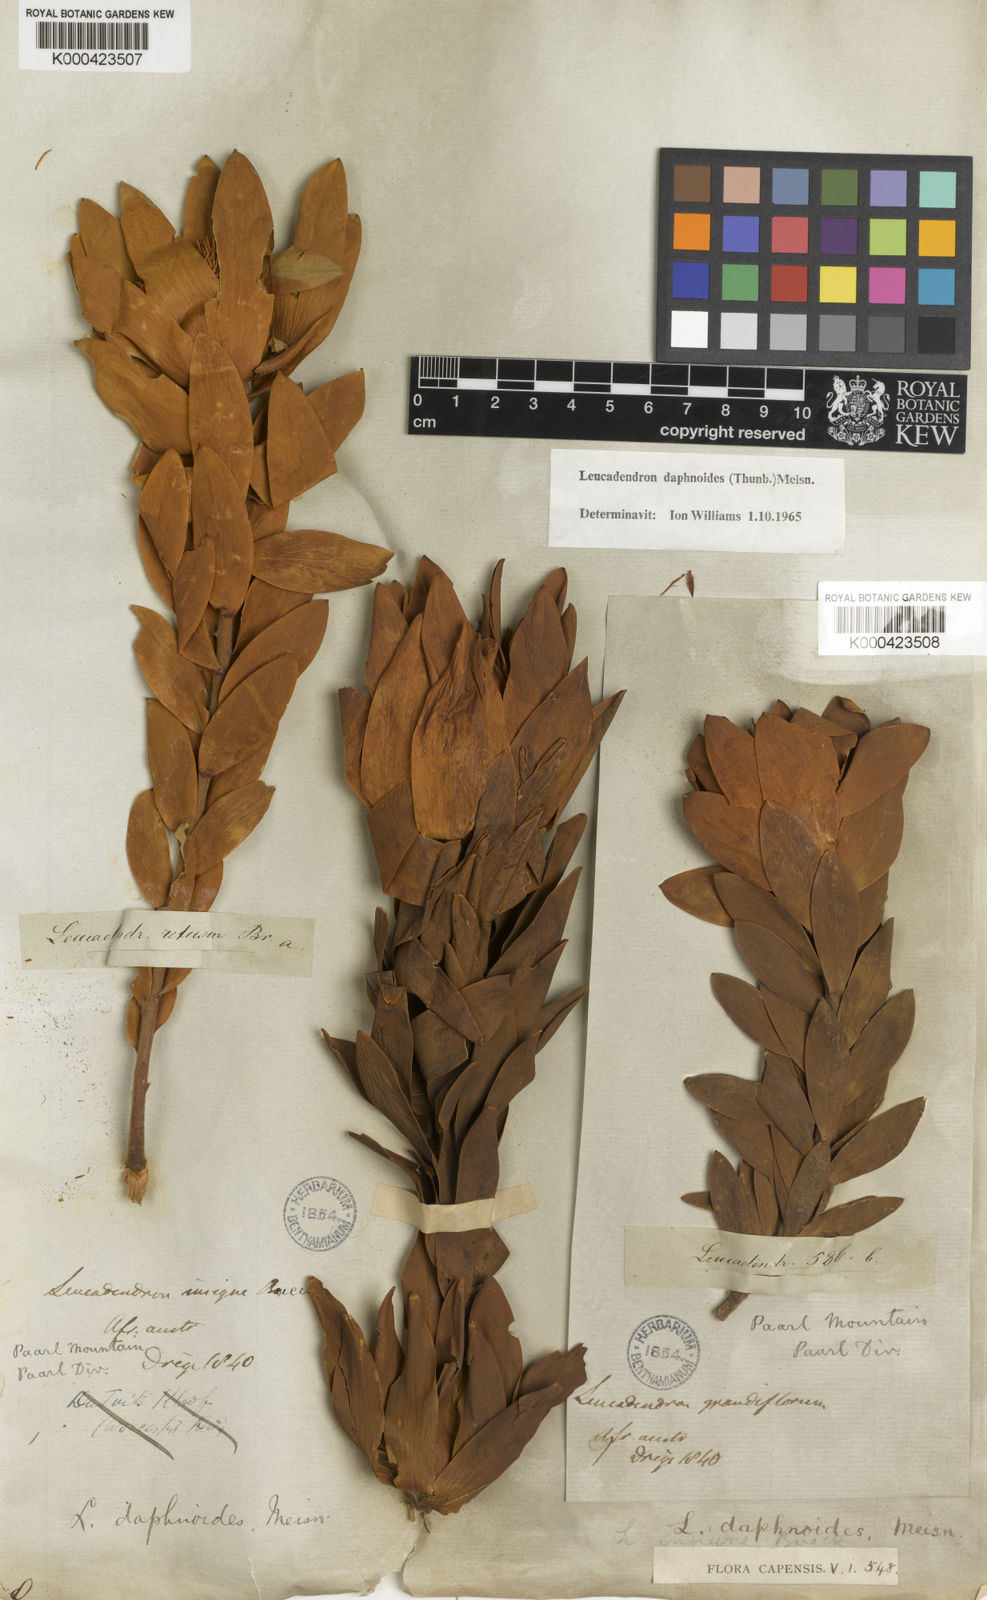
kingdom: Plantae
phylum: Tracheophyta
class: Magnoliopsida
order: Proteales
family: Proteaceae
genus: Leucadendron
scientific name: Leucadendron daphnoides
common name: Du toit's kloof conebush
